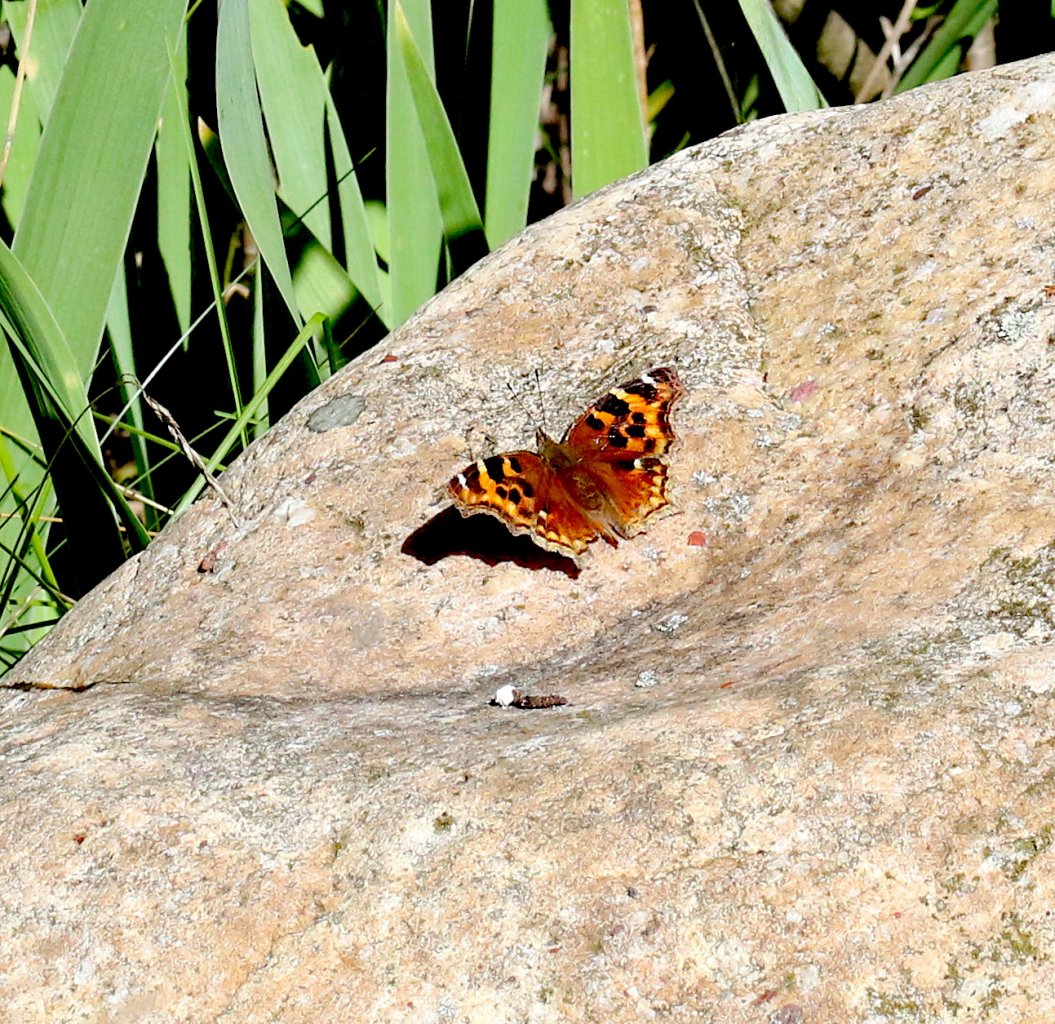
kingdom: Animalia
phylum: Arthropoda
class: Insecta
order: Lepidoptera
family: Nymphalidae
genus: Polygonia
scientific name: Polygonia vaualbum
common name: Compton Tortoiseshell
